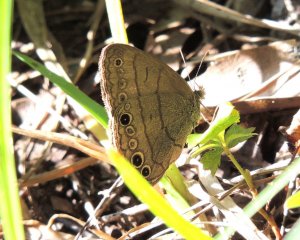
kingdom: Animalia
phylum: Arthropoda
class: Insecta
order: Lepidoptera
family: Nymphalidae
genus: Hermeuptychia
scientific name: Hermeuptychia hermes
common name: Carolina Satyr
